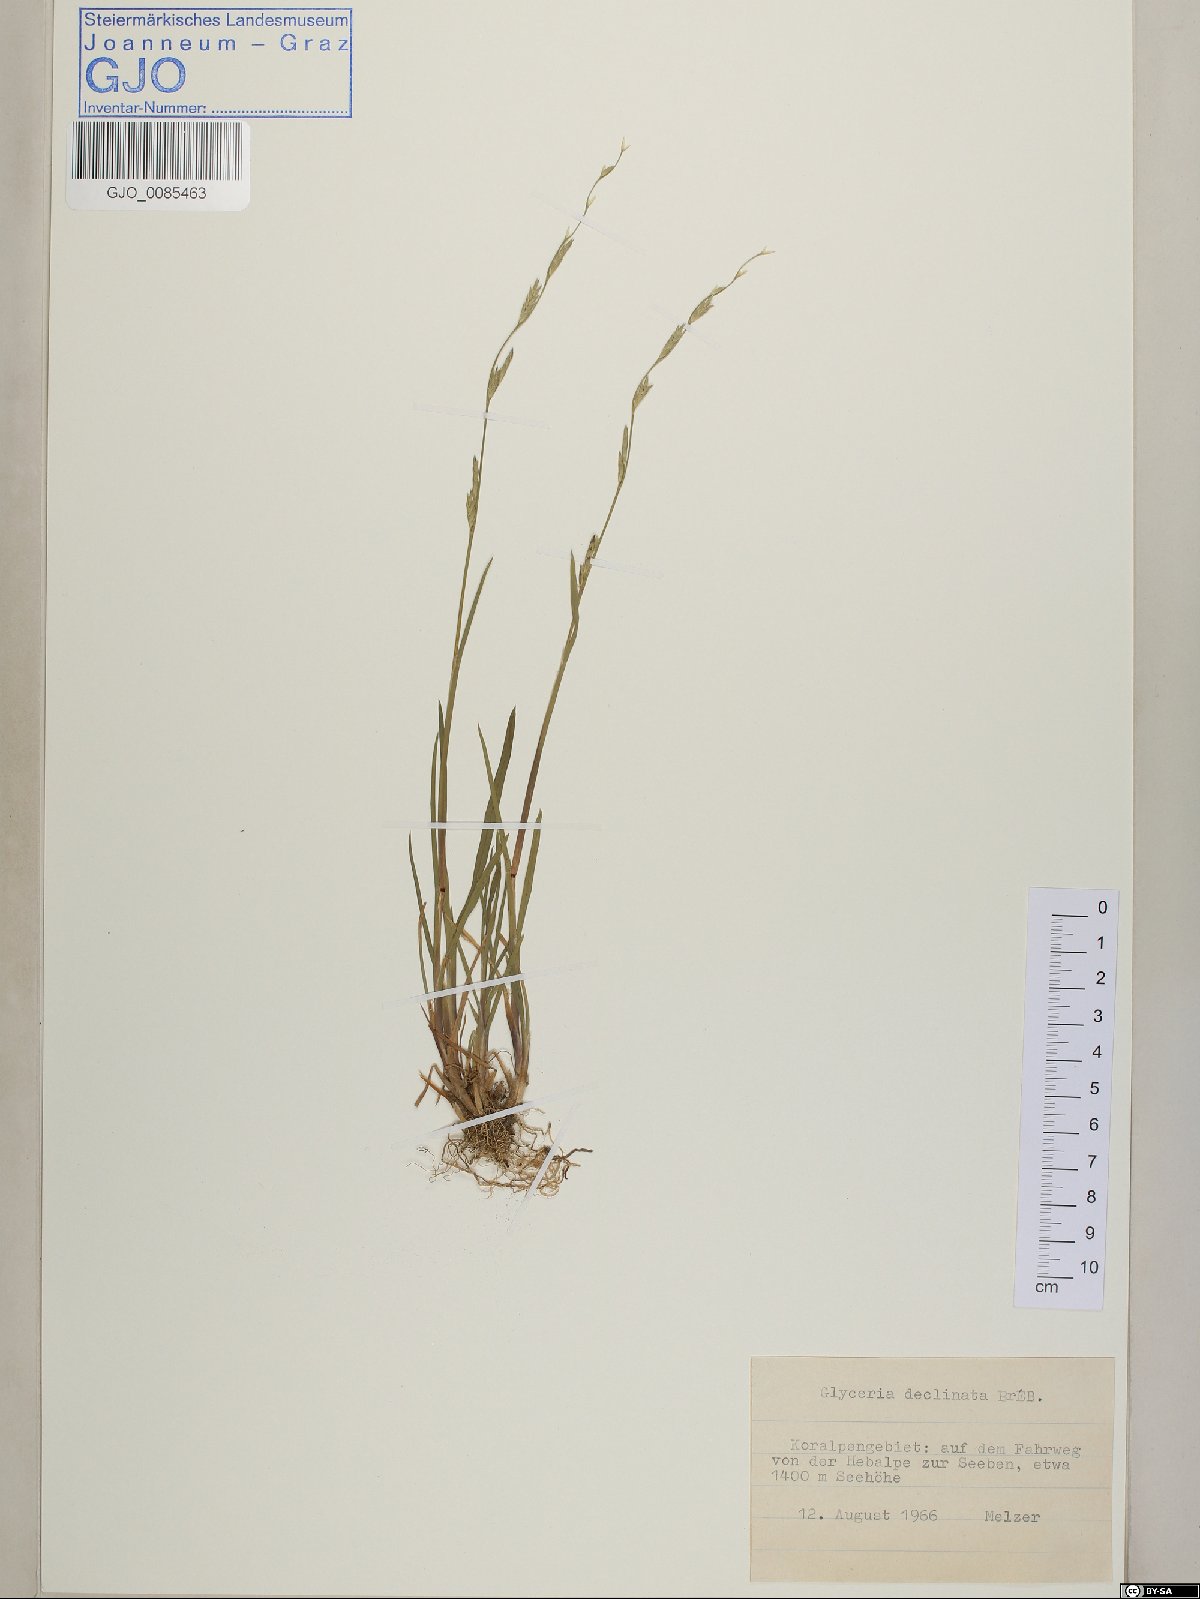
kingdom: Plantae
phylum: Tracheophyta
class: Liliopsida
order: Poales
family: Poaceae
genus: Glyceria
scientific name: Glyceria declinata
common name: Small sweet-grass
